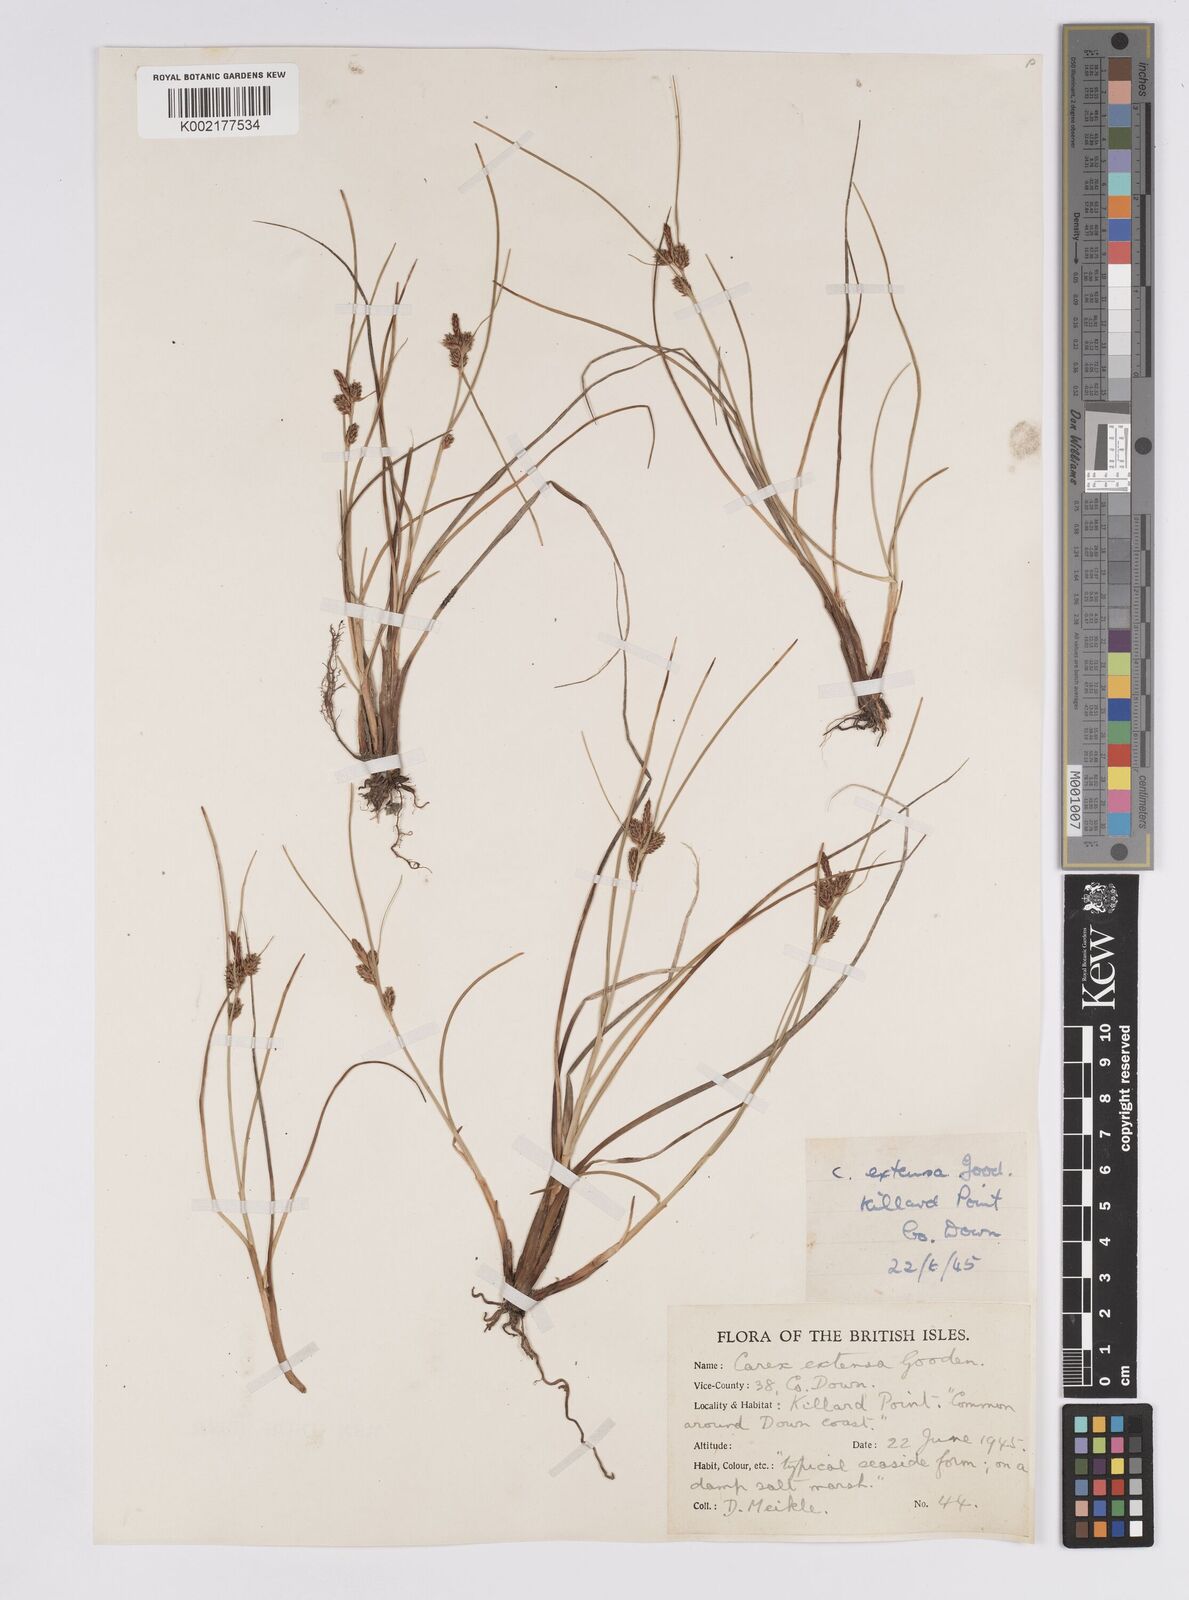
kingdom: Plantae
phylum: Tracheophyta
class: Liliopsida
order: Poales
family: Cyperaceae
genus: Carex
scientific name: Carex extensa
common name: Long-bracted sedge
